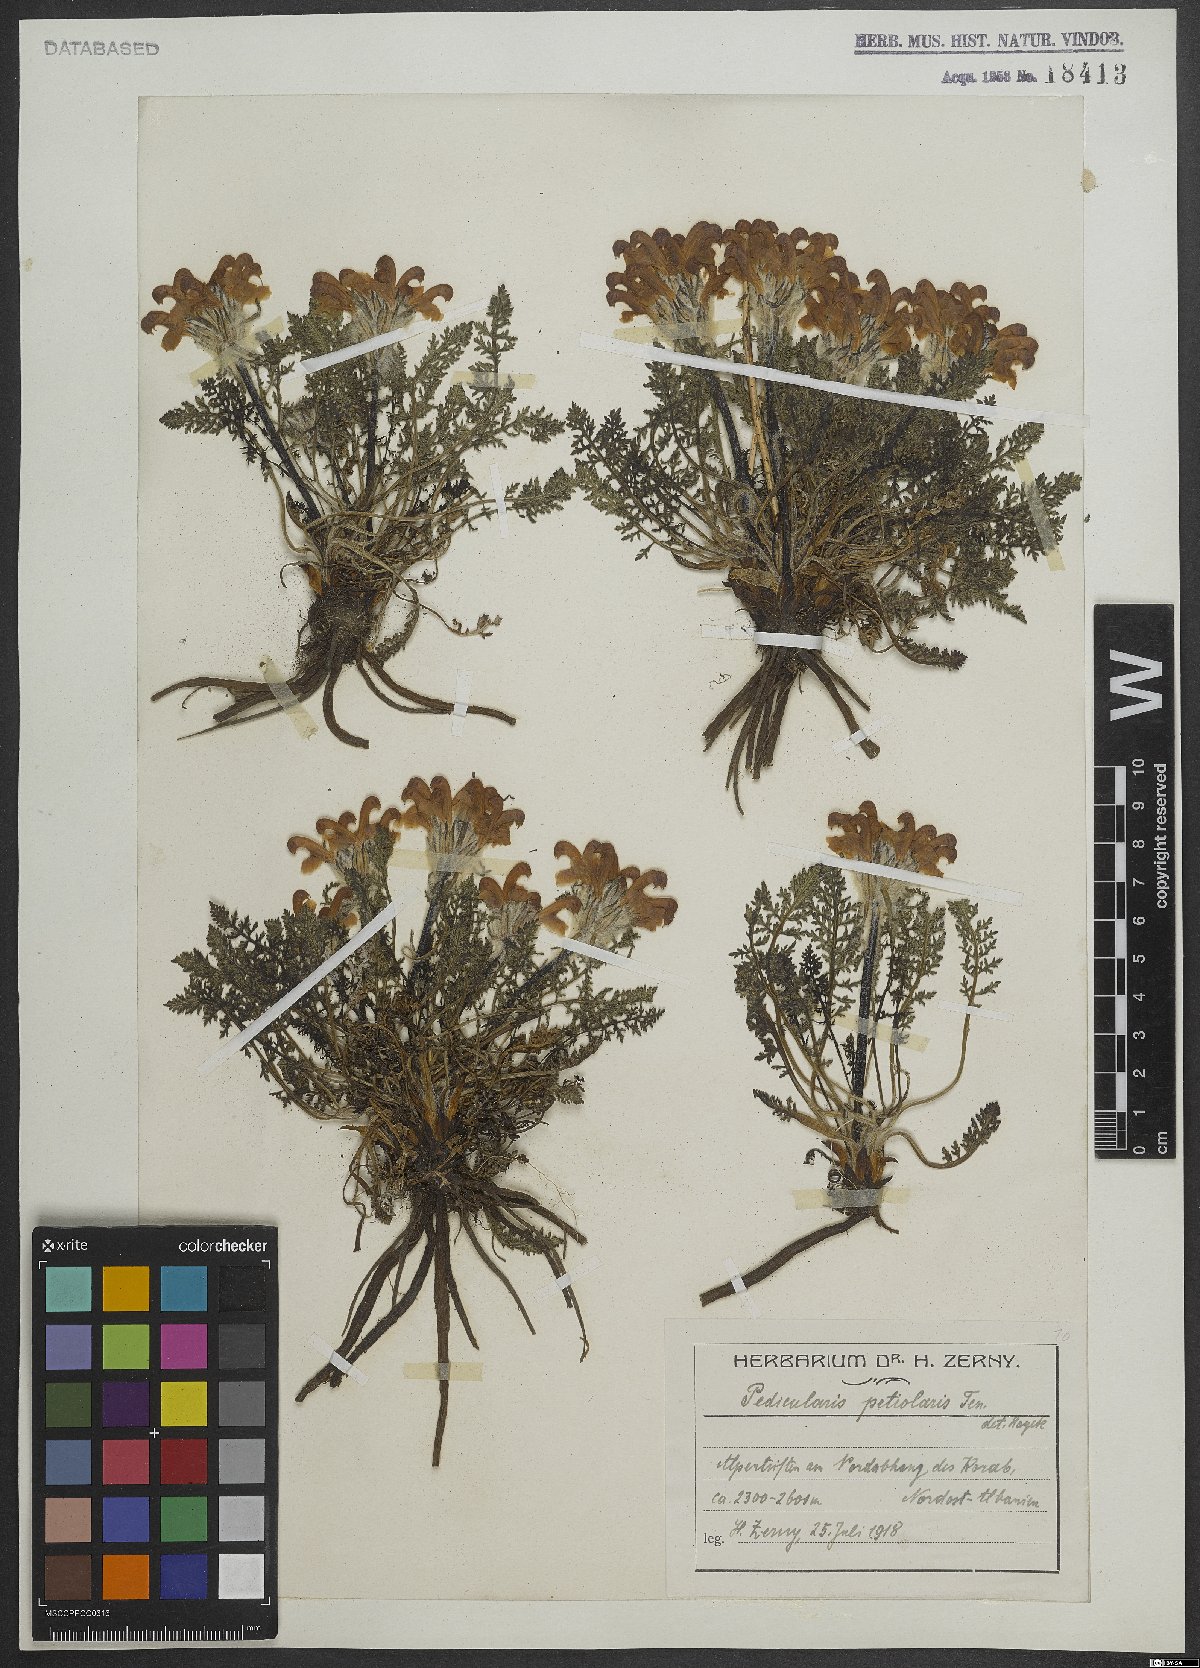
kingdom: Plantae
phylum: Tracheophyta
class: Magnoliopsida
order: Lamiales
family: Orobanchaceae
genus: Pedicularis
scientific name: Pedicularis petiolaris
